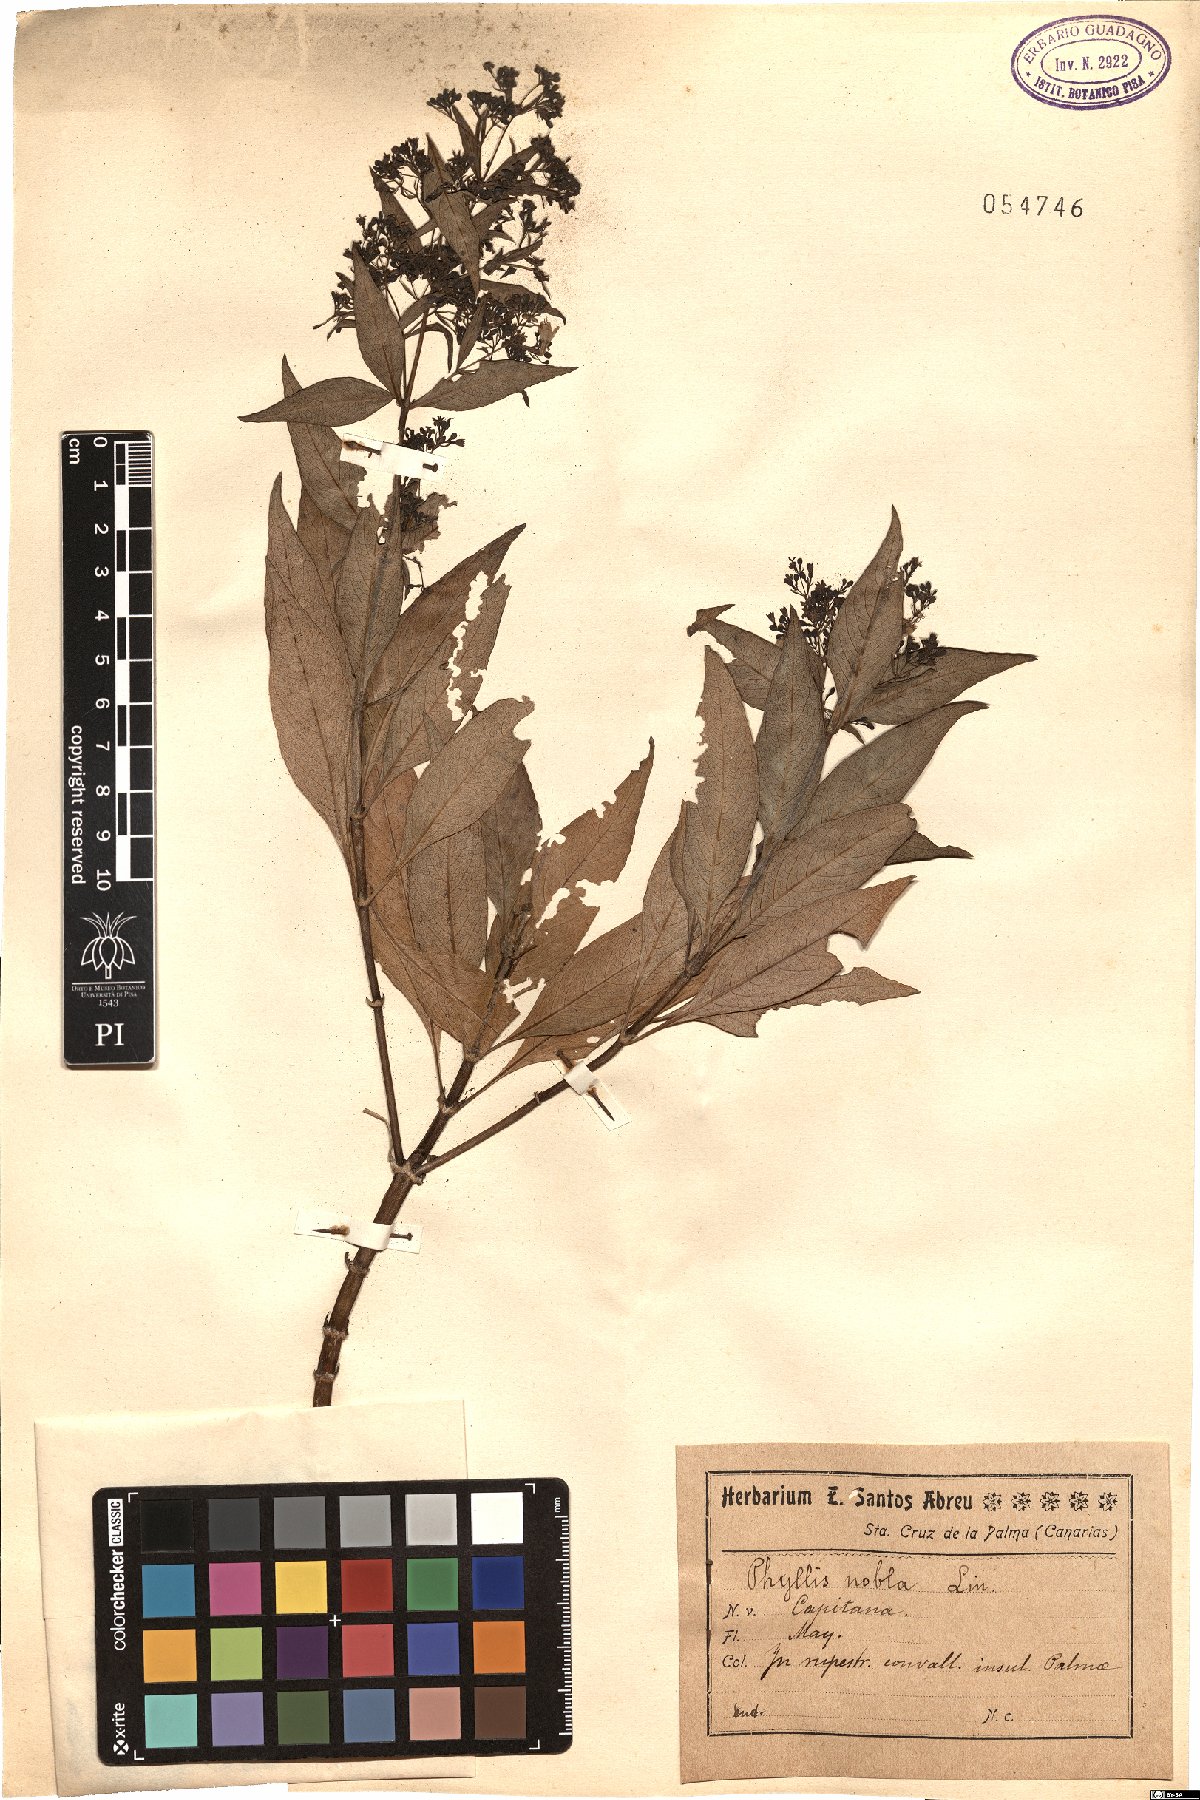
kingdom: Plantae
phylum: Tracheophyta
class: Magnoliopsida
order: Gentianales
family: Rubiaceae
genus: Phyllis
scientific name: Phyllis nobla
